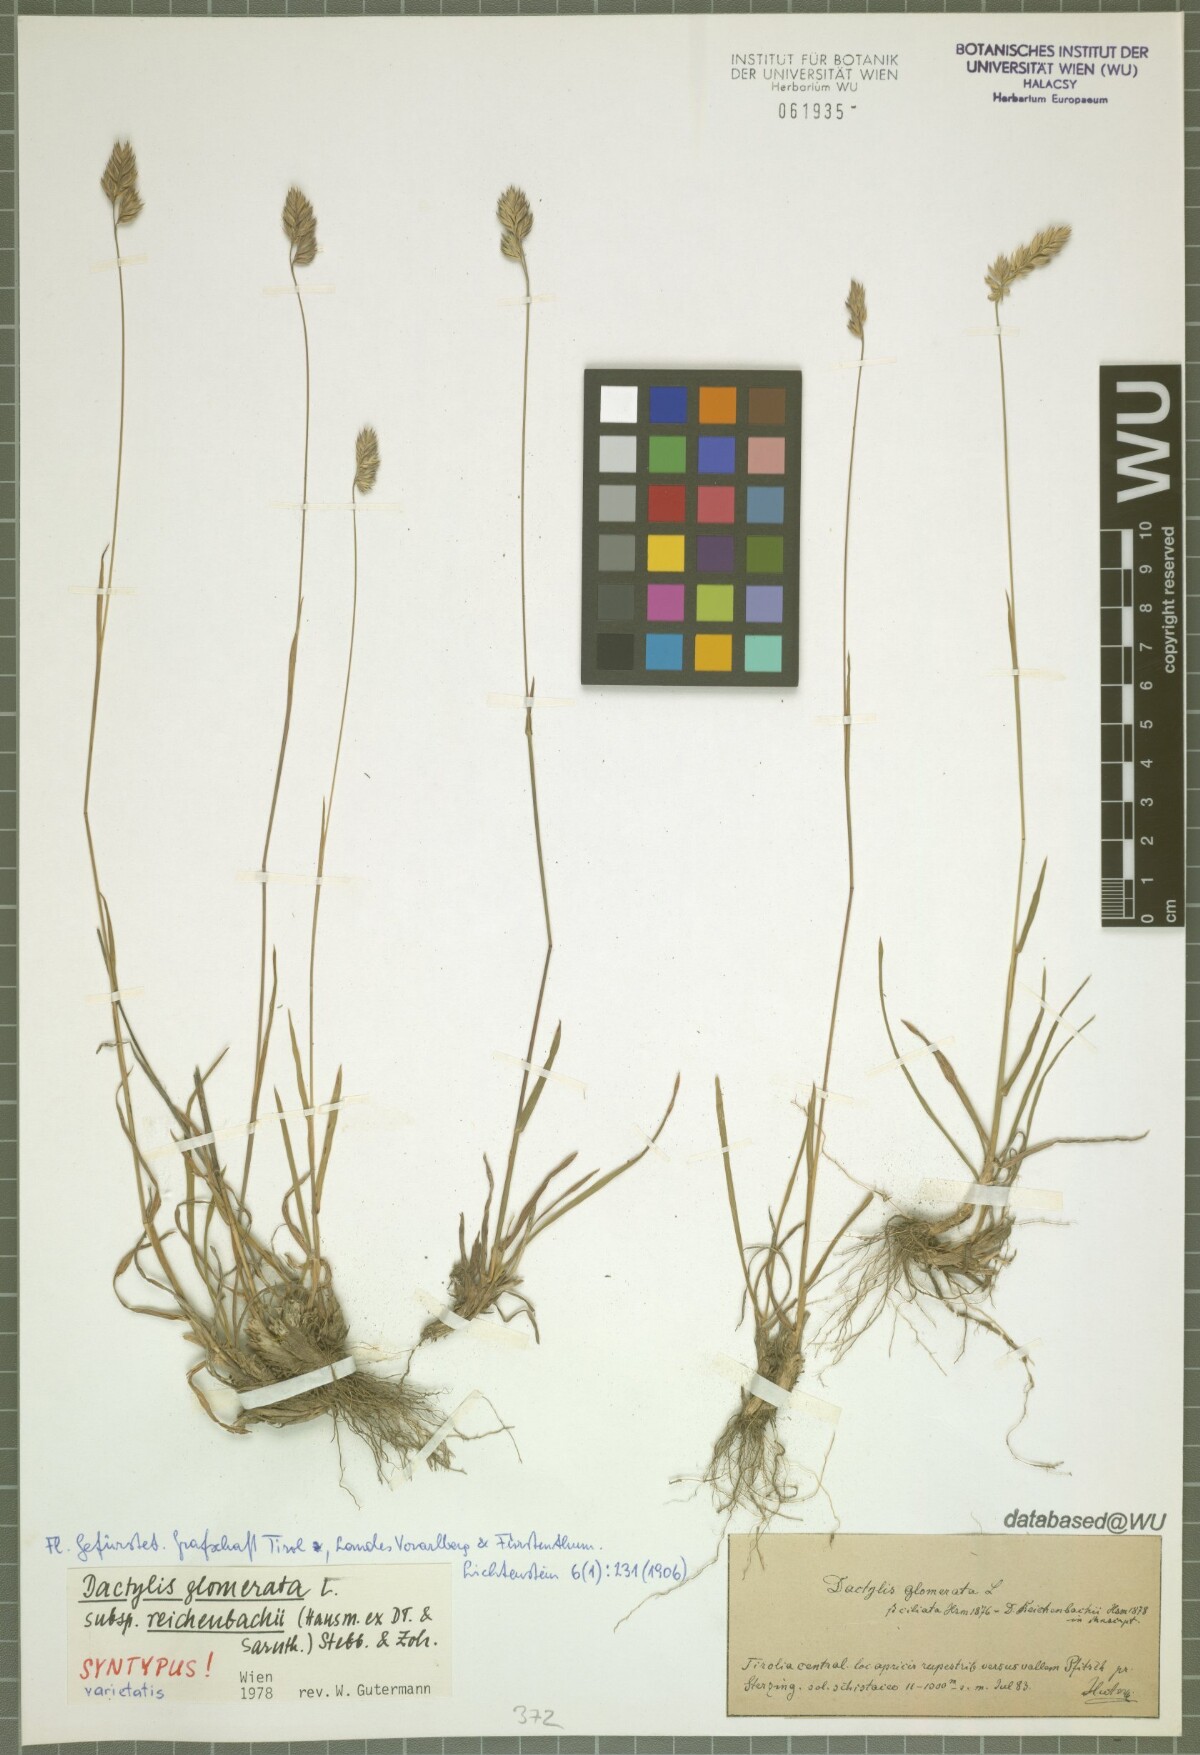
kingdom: Plantae
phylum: Tracheophyta
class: Liliopsida
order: Poales
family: Poaceae
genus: Dactylis
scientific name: Dactylis glomerata
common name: Orchardgrass
